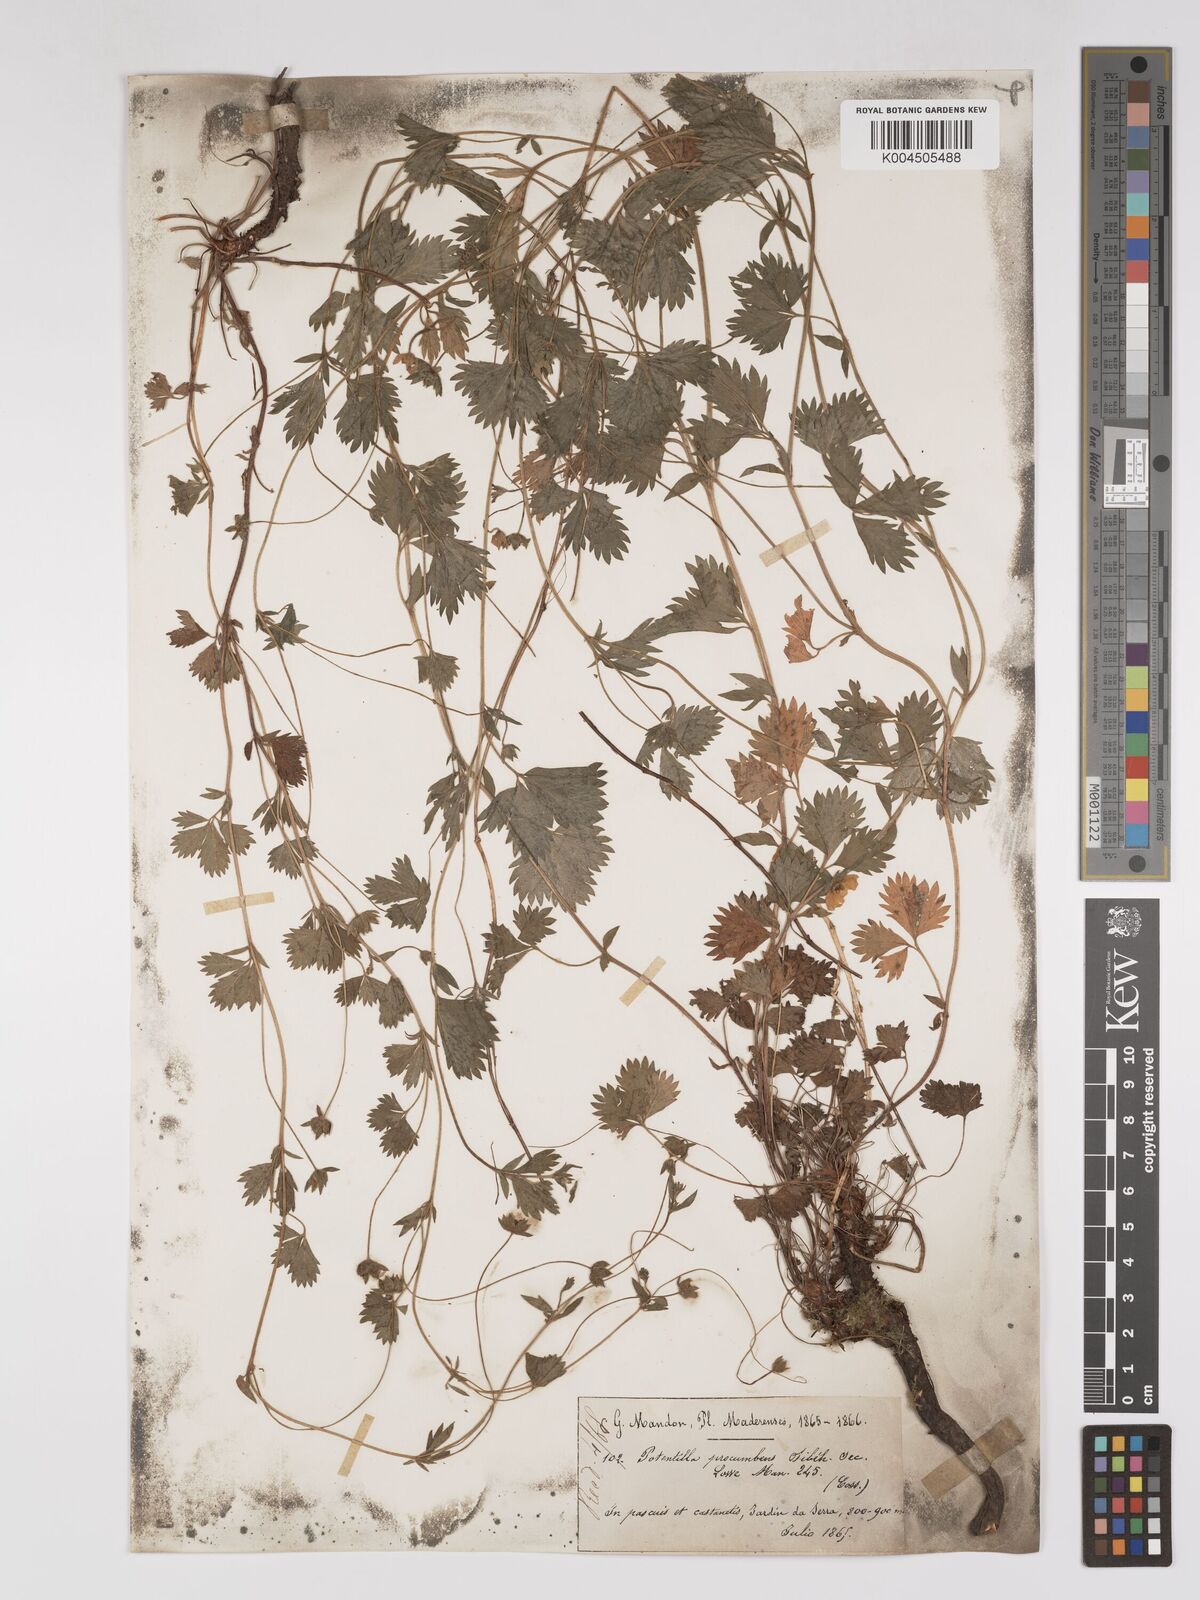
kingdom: Plantae
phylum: Tracheophyta
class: Magnoliopsida
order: Rosales
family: Rosaceae
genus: Potentilla
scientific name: Potentilla
